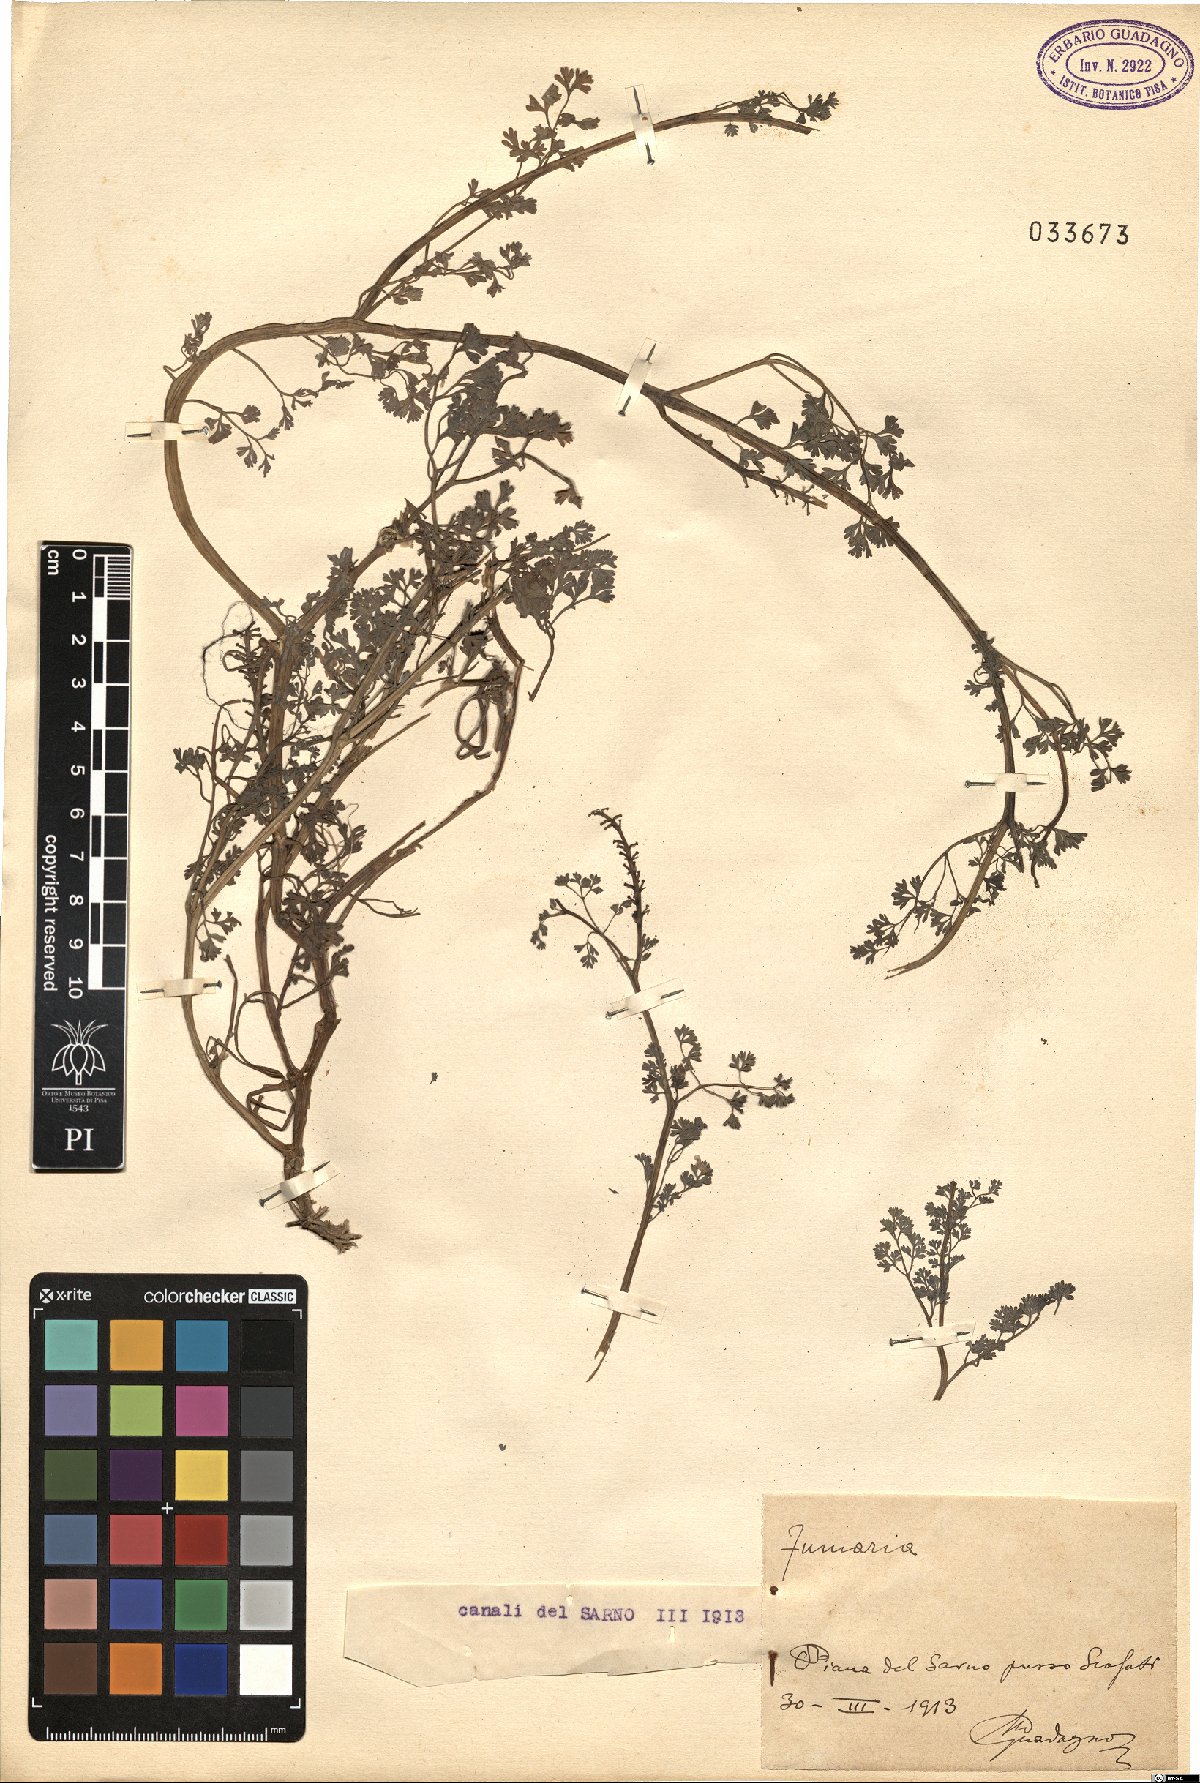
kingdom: Plantae
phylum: Tracheophyta
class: Magnoliopsida
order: Ranunculales
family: Papaveraceae
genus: Fumaria
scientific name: Fumaria
